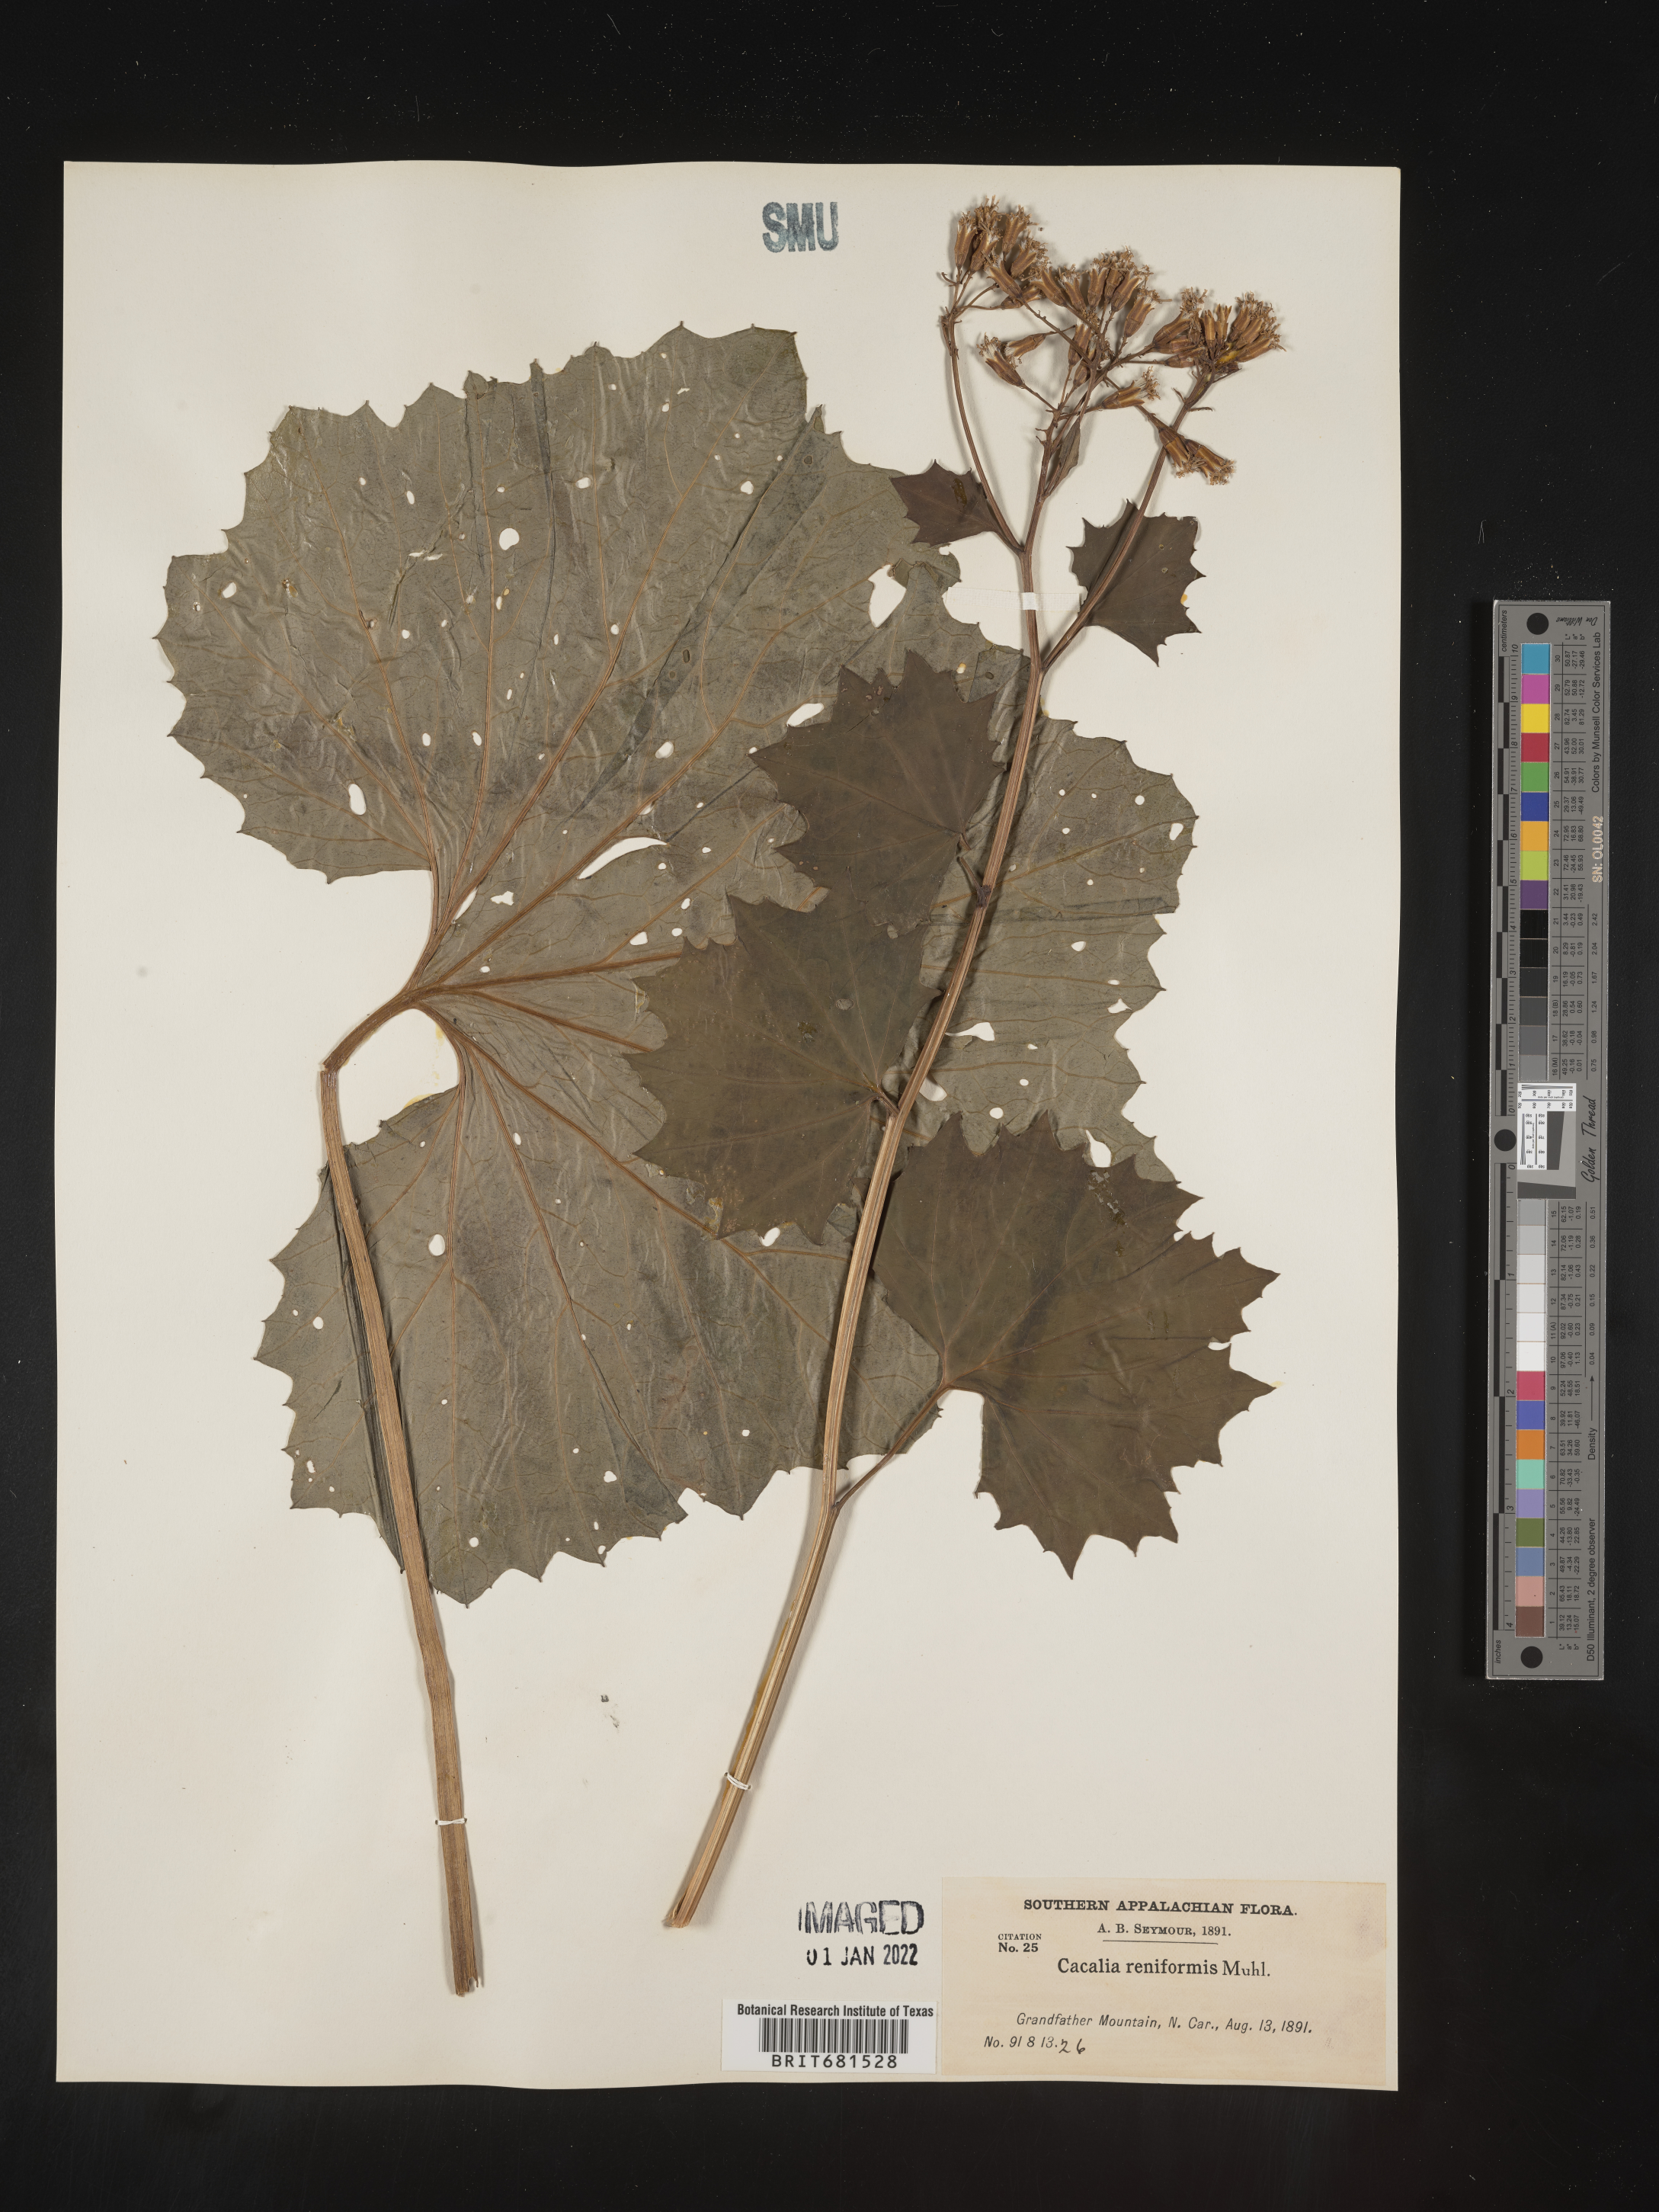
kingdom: Plantae
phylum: Tracheophyta
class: Magnoliopsida
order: Asterales
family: Asteraceae
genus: Arnoglossum
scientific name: Arnoglossum reniforme
